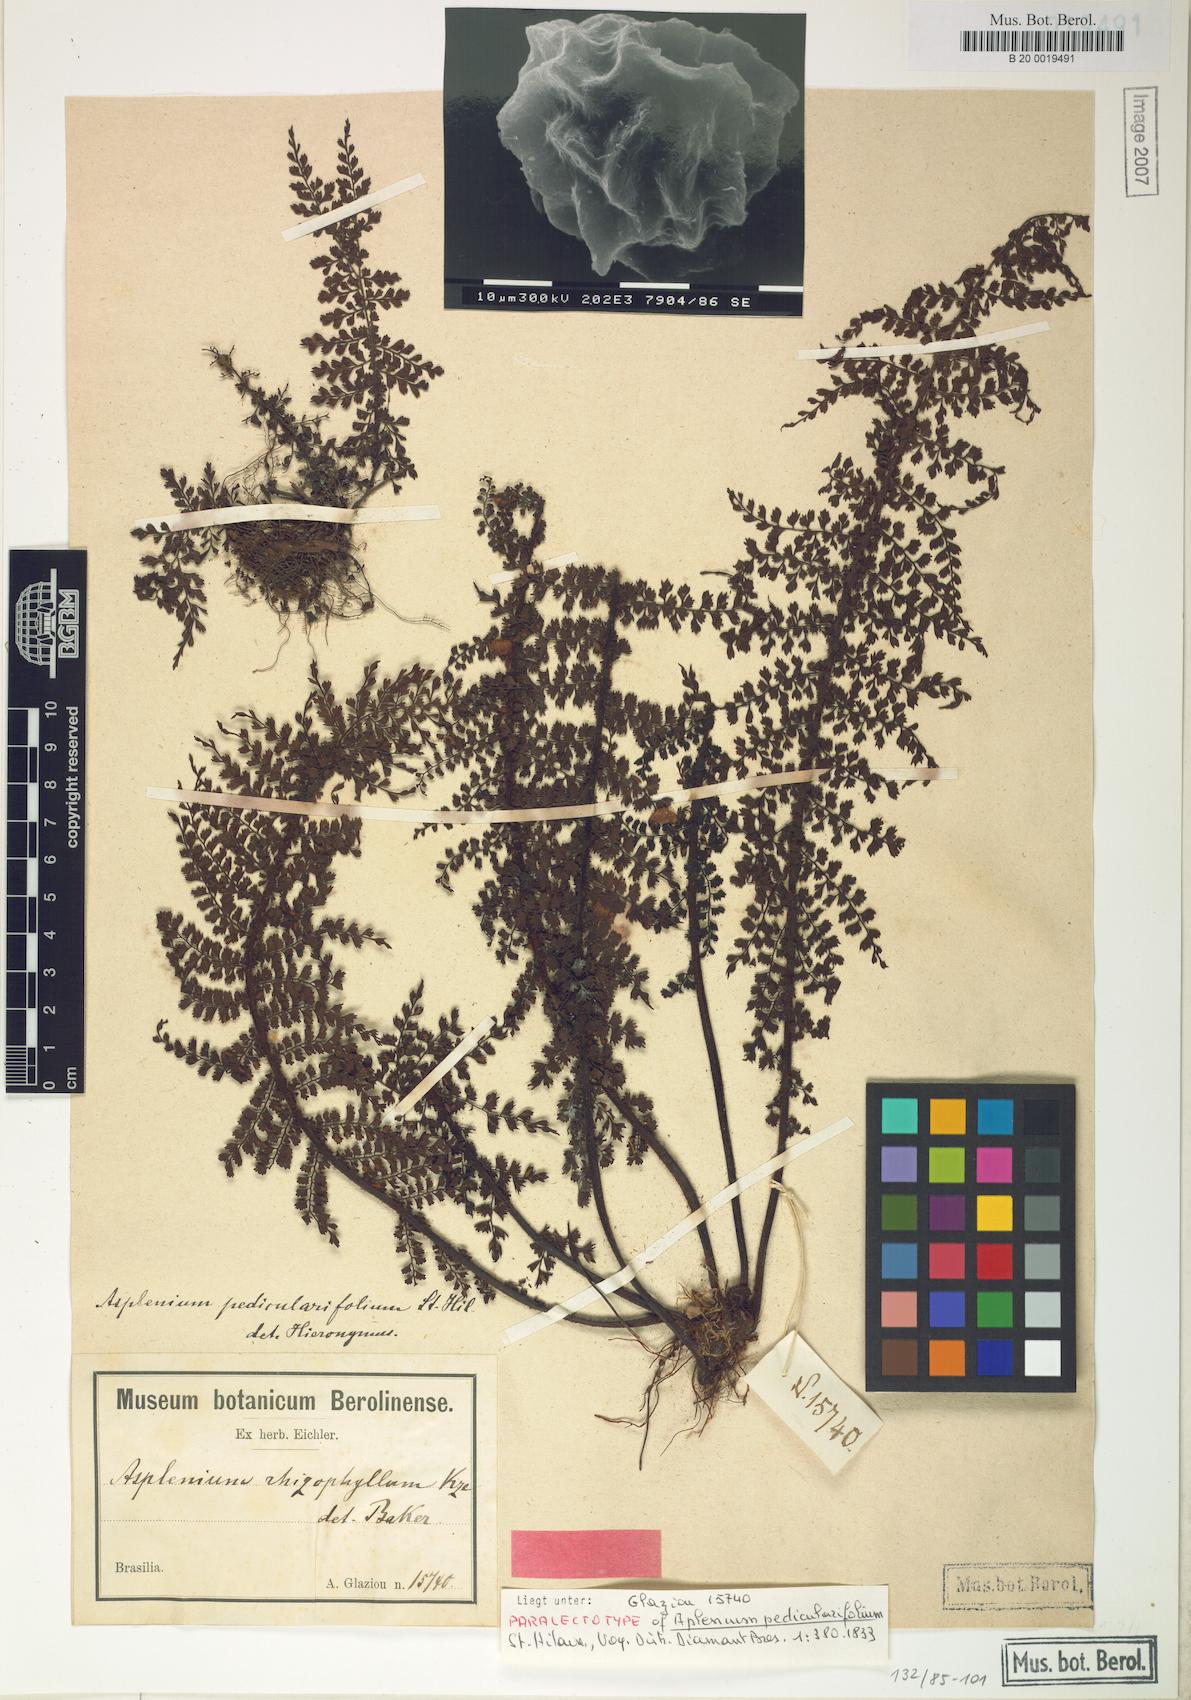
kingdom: Plantae
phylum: Tracheophyta
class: Polypodiopsida
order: Polypodiales
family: Aspleniaceae
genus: Asplenium
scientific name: Asplenium pedicularifolium
